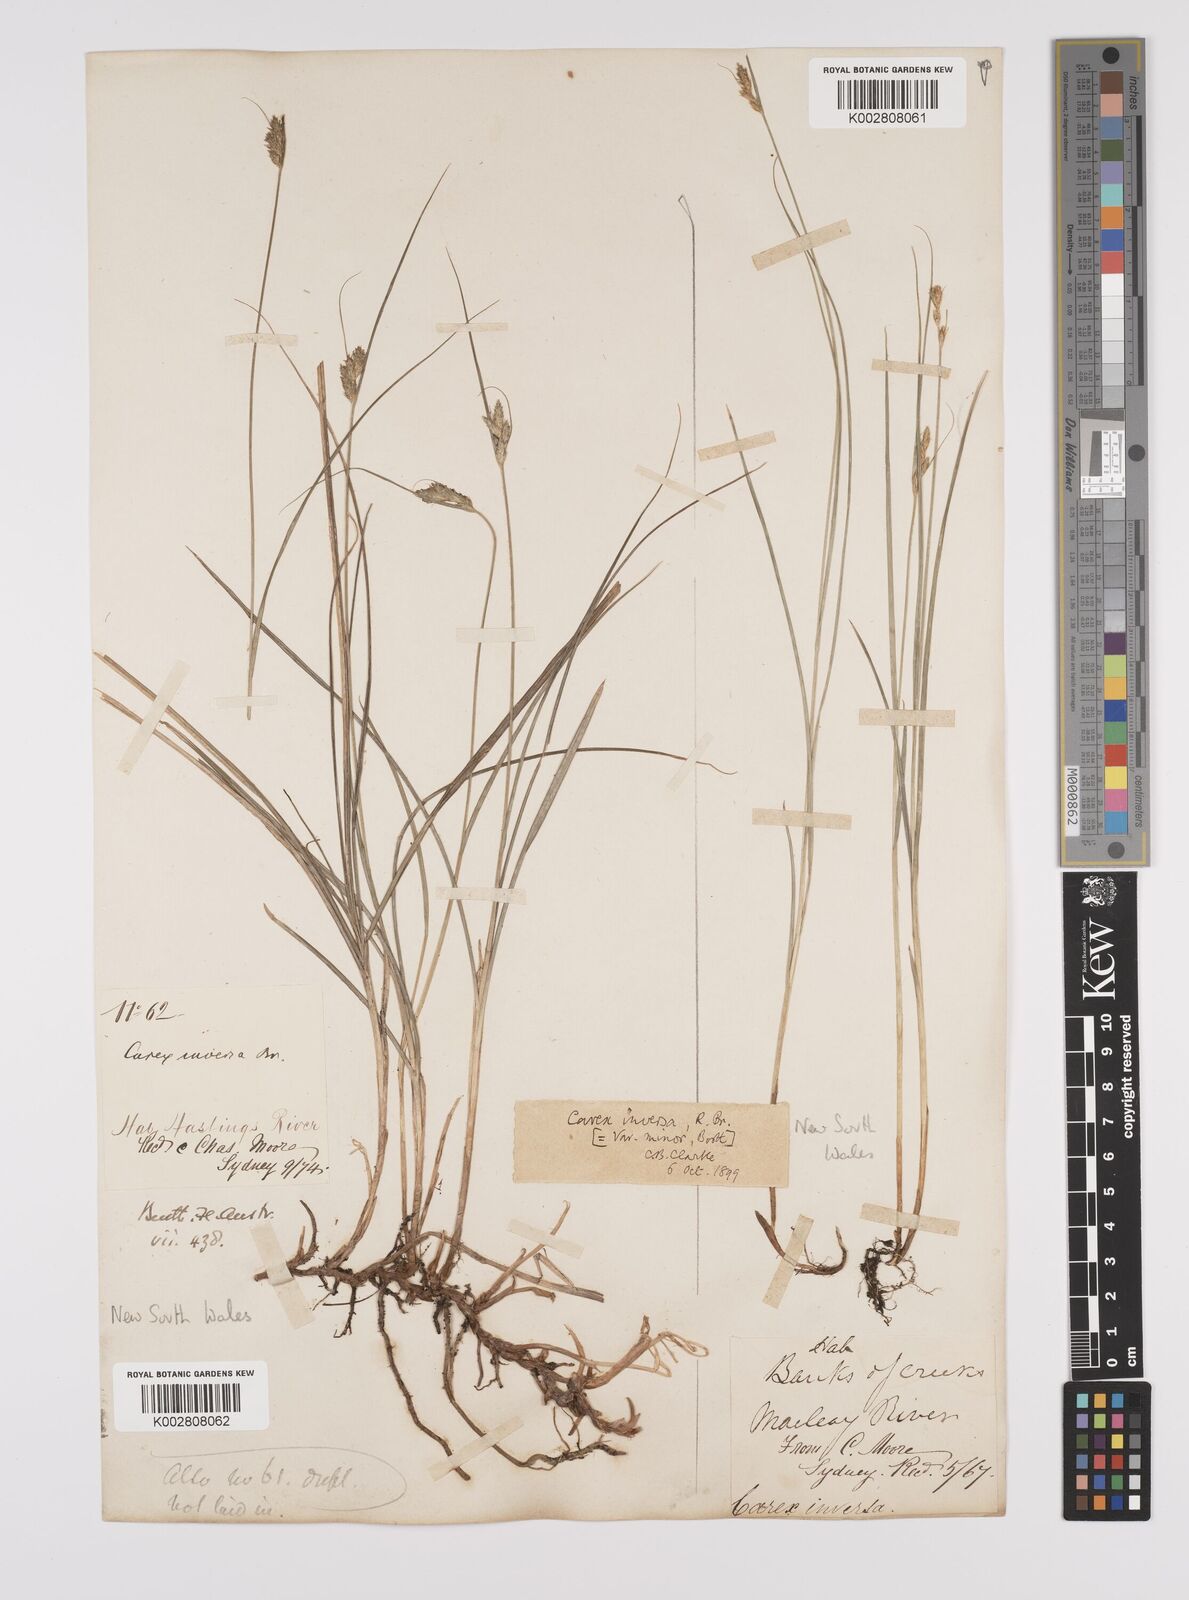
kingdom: Plantae
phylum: Tracheophyta
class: Liliopsida
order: Poales
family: Cyperaceae
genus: Carex
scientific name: Carex inversa
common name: Knob sedge
